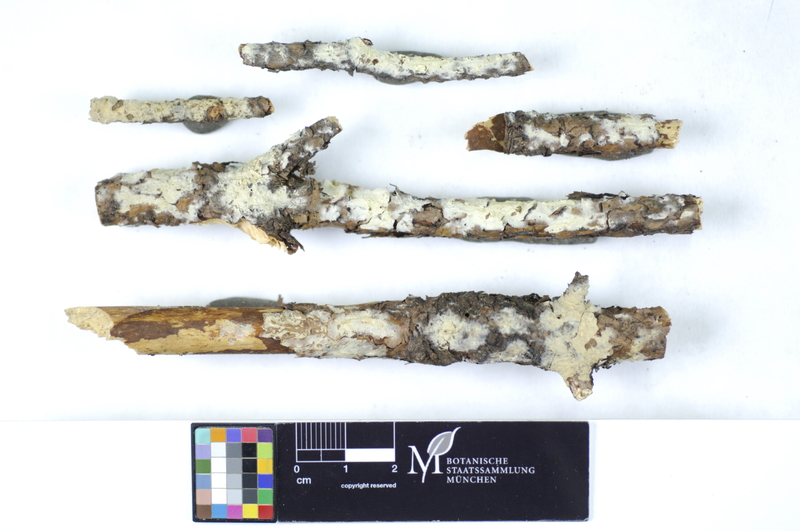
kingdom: Fungi
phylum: Basidiomycota
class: Agaricomycetes
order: Hymenochaetales
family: Rickenellaceae
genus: Peniophorella
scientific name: Peniophorella praetermissa
